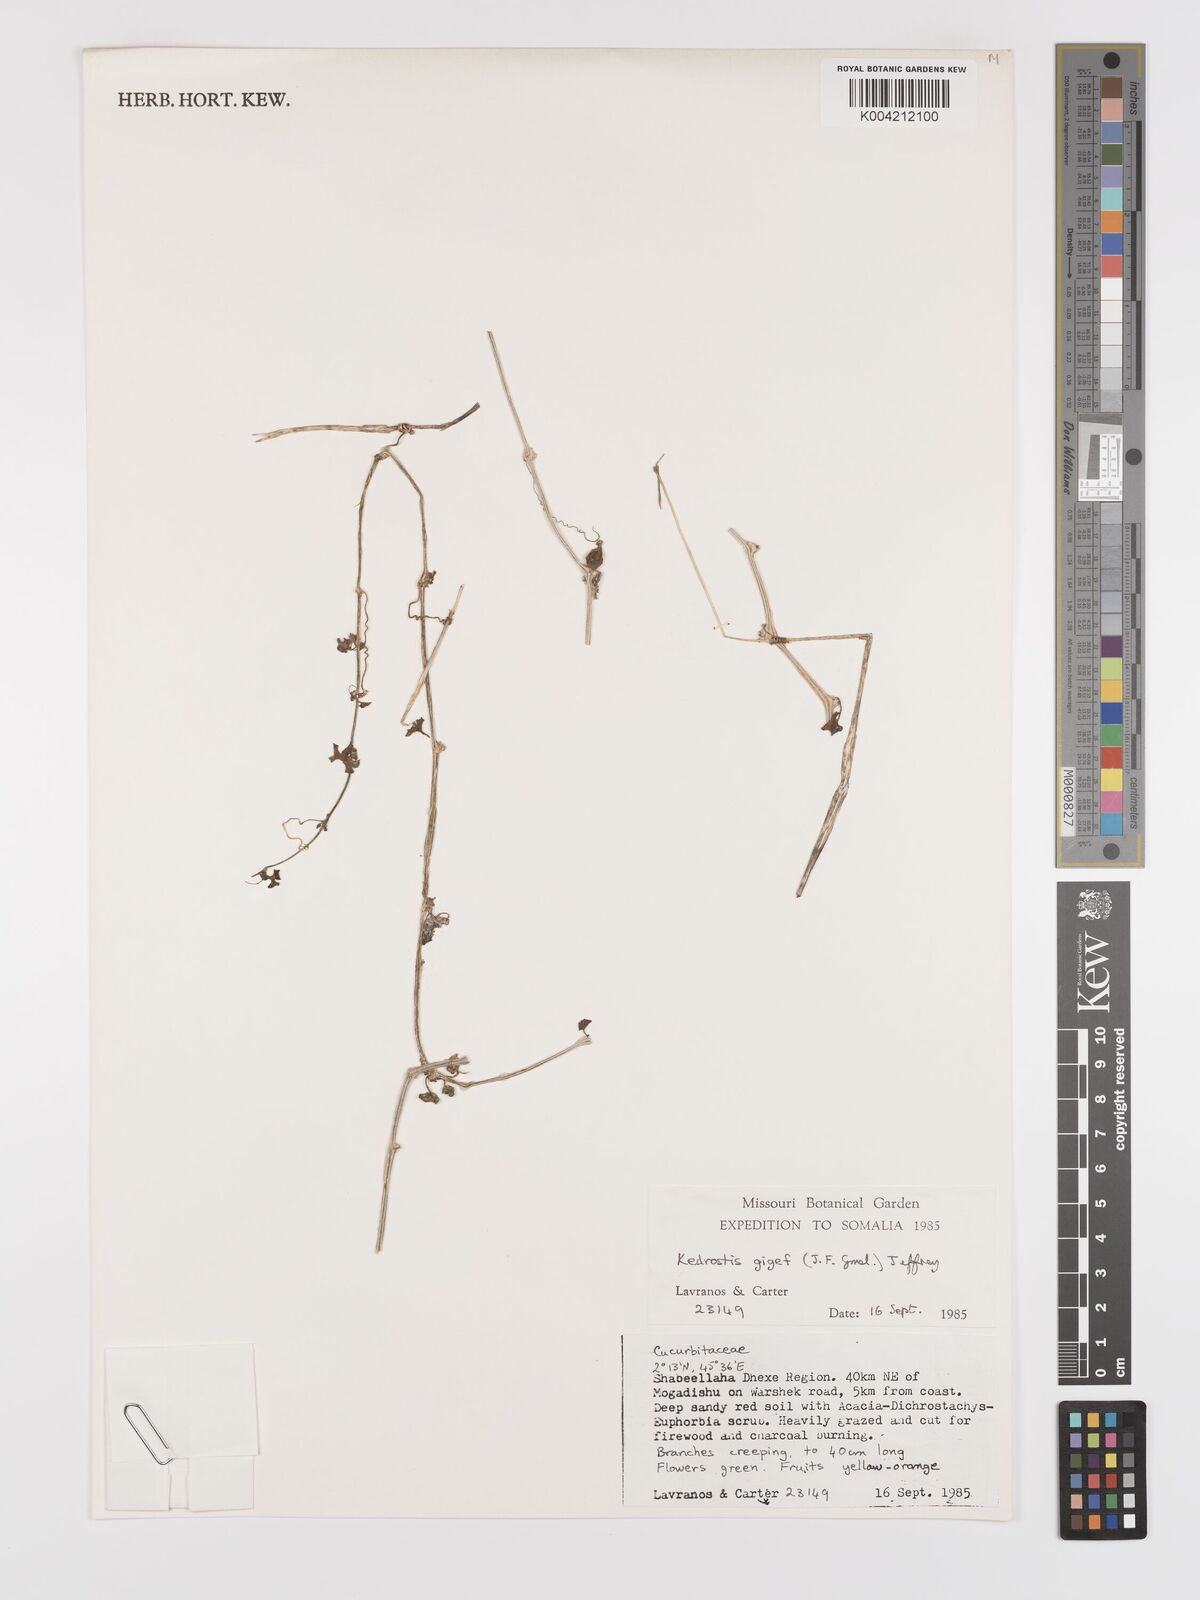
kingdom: Plantae
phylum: Tracheophyta
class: Magnoliopsida
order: Cucurbitales
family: Cucurbitaceae
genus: Kedrostis
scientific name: Kedrostis gijef
